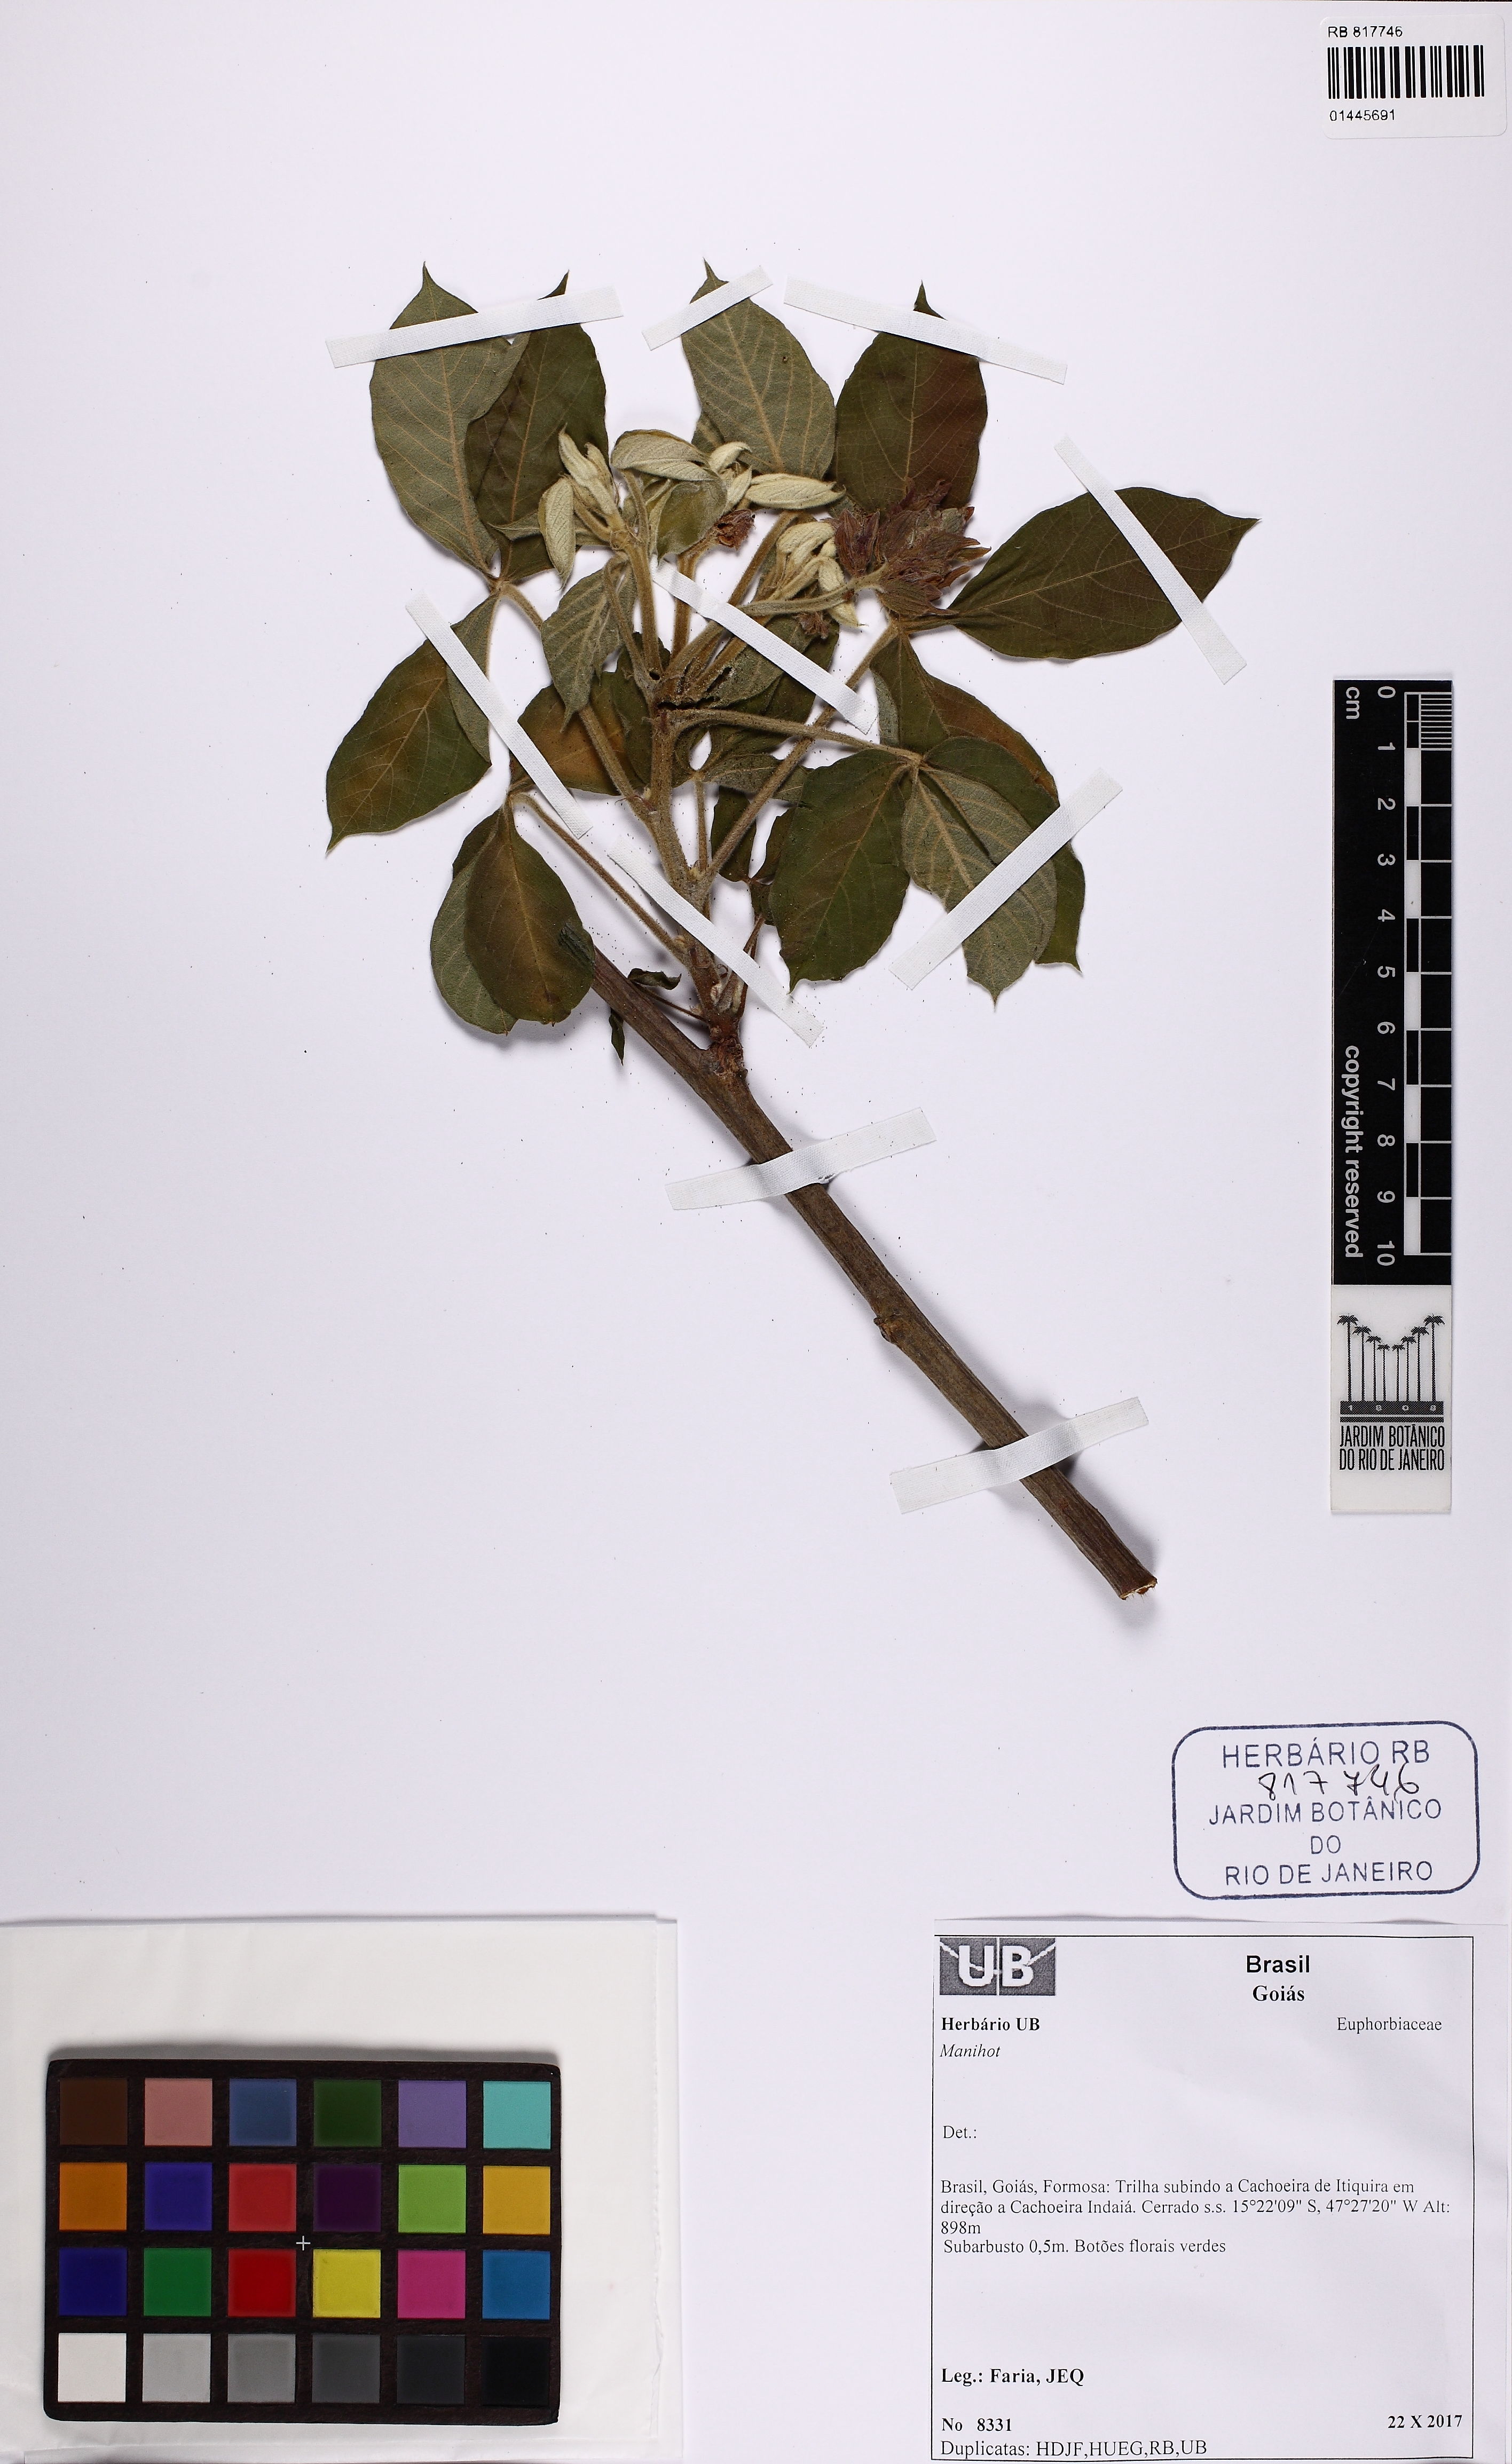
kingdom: Plantae
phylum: Tracheophyta
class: Magnoliopsida
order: Malpighiales
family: Euphorbiaceae
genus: Manihot
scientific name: Manihot
